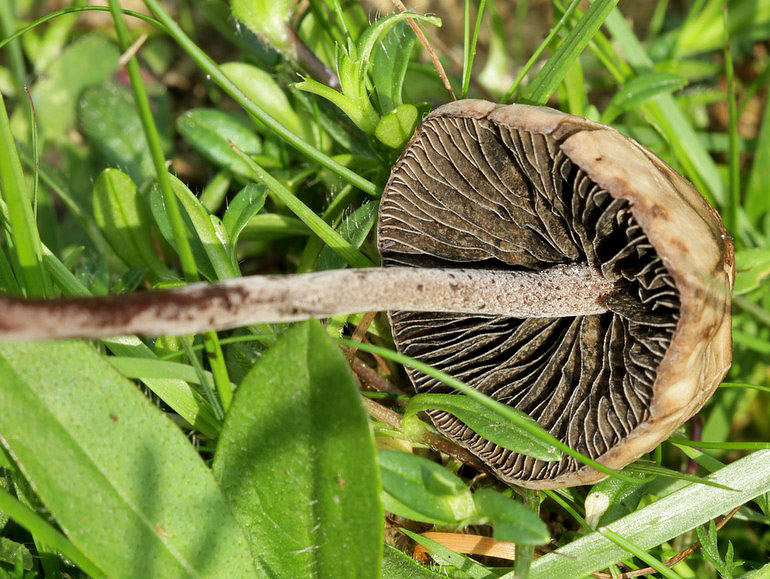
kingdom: Fungi
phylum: Basidiomycota
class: Agaricomycetes
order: Agaricales
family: Bolbitiaceae
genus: Panaeolus
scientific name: Panaeolus acuminatus
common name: høj glanshat
